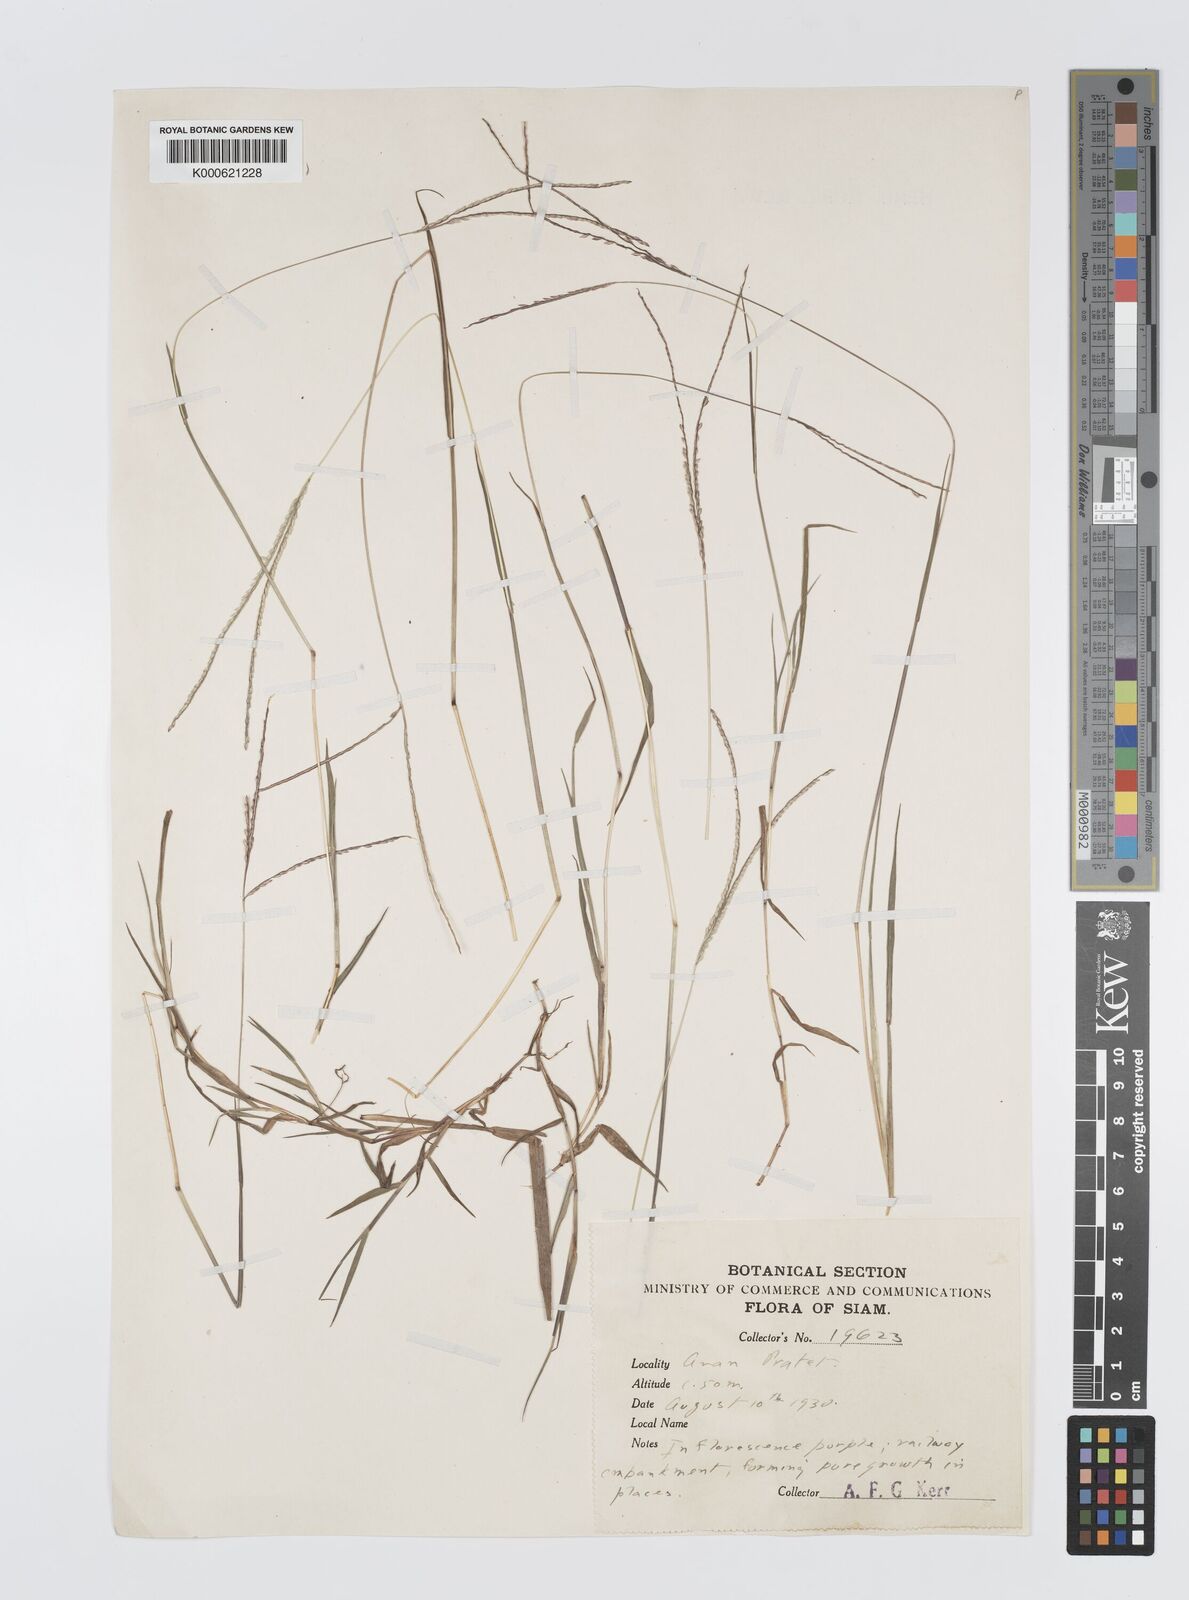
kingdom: Plantae
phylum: Tracheophyta
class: Liliopsida
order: Poales
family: Poaceae
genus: Digitaria
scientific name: Digitaria
